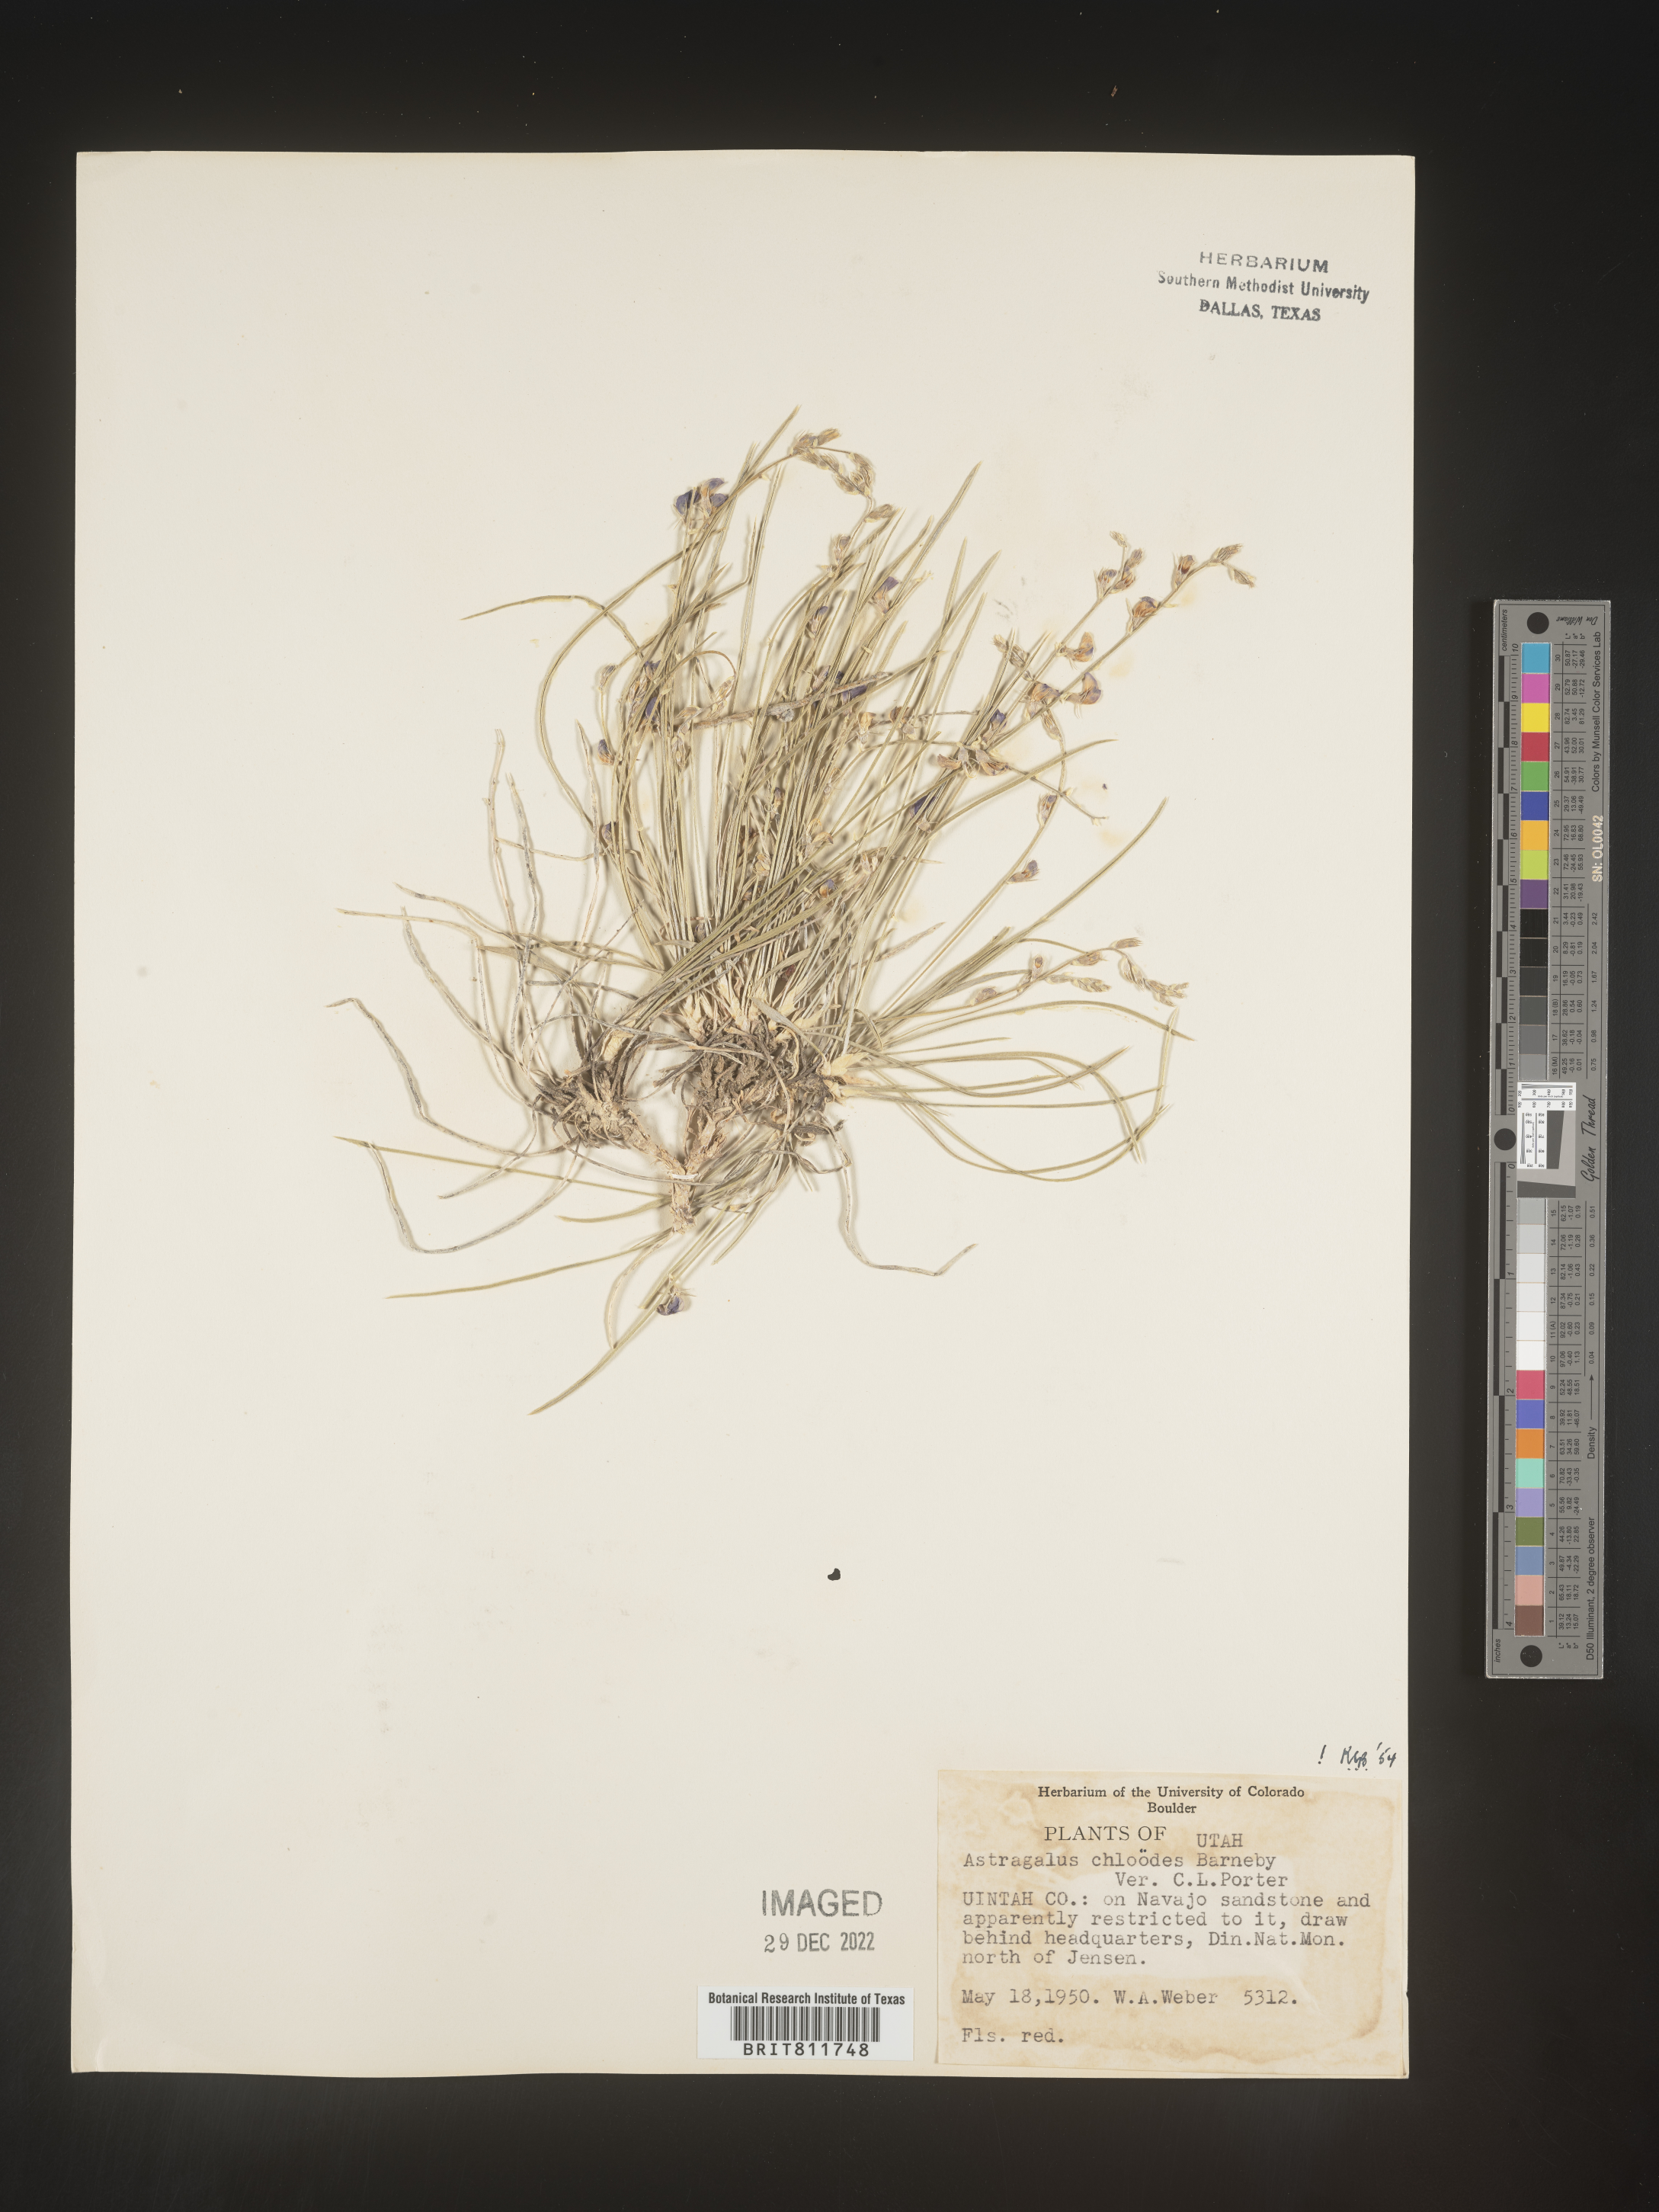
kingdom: Plantae
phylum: Tracheophyta
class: Magnoliopsida
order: Fabales
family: Fabaceae
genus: Astragalus
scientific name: Astragalus
